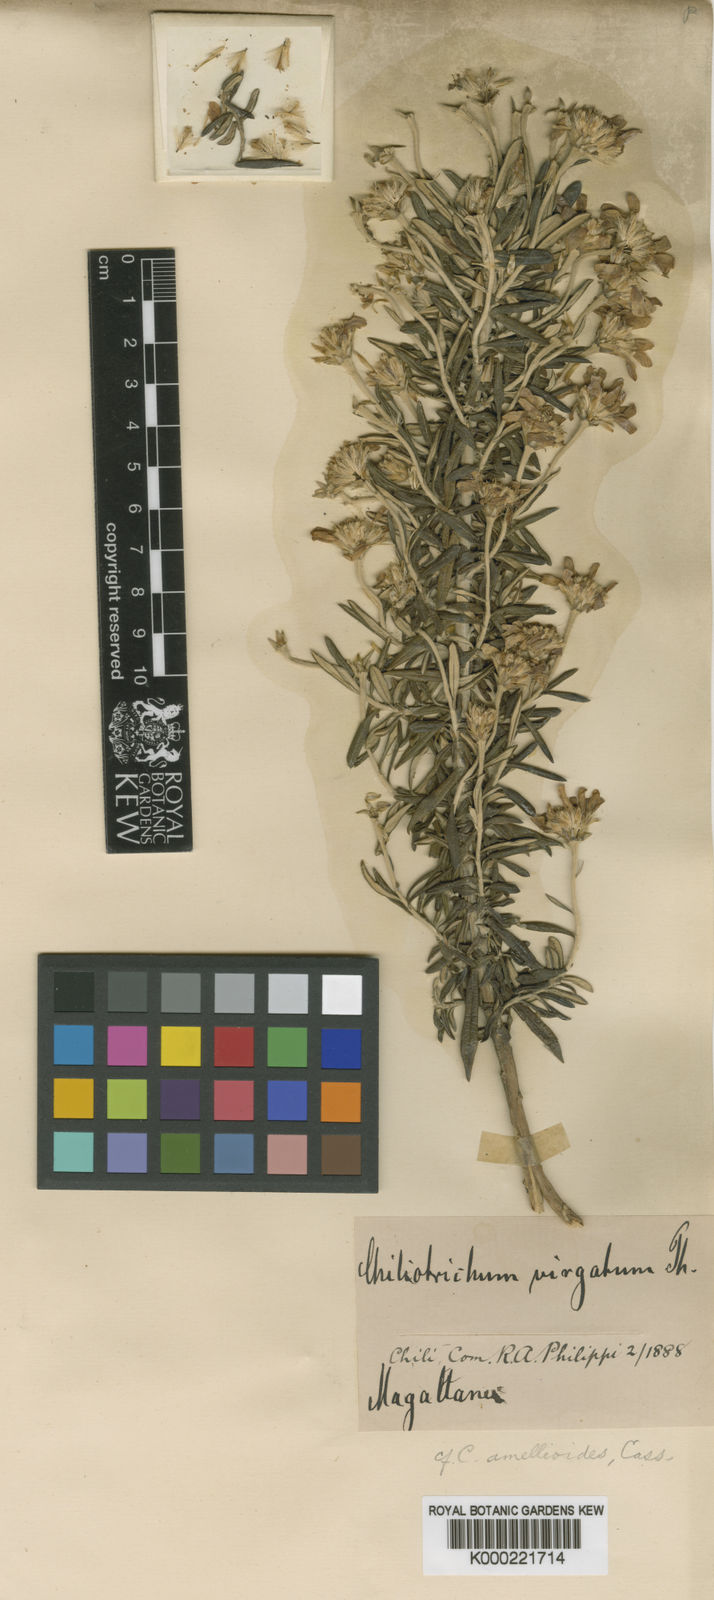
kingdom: Plantae
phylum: Tracheophyta
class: Magnoliopsida
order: Asterales
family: Asteraceae
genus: Chiliotrichum
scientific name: Chiliotrichum diffusum
